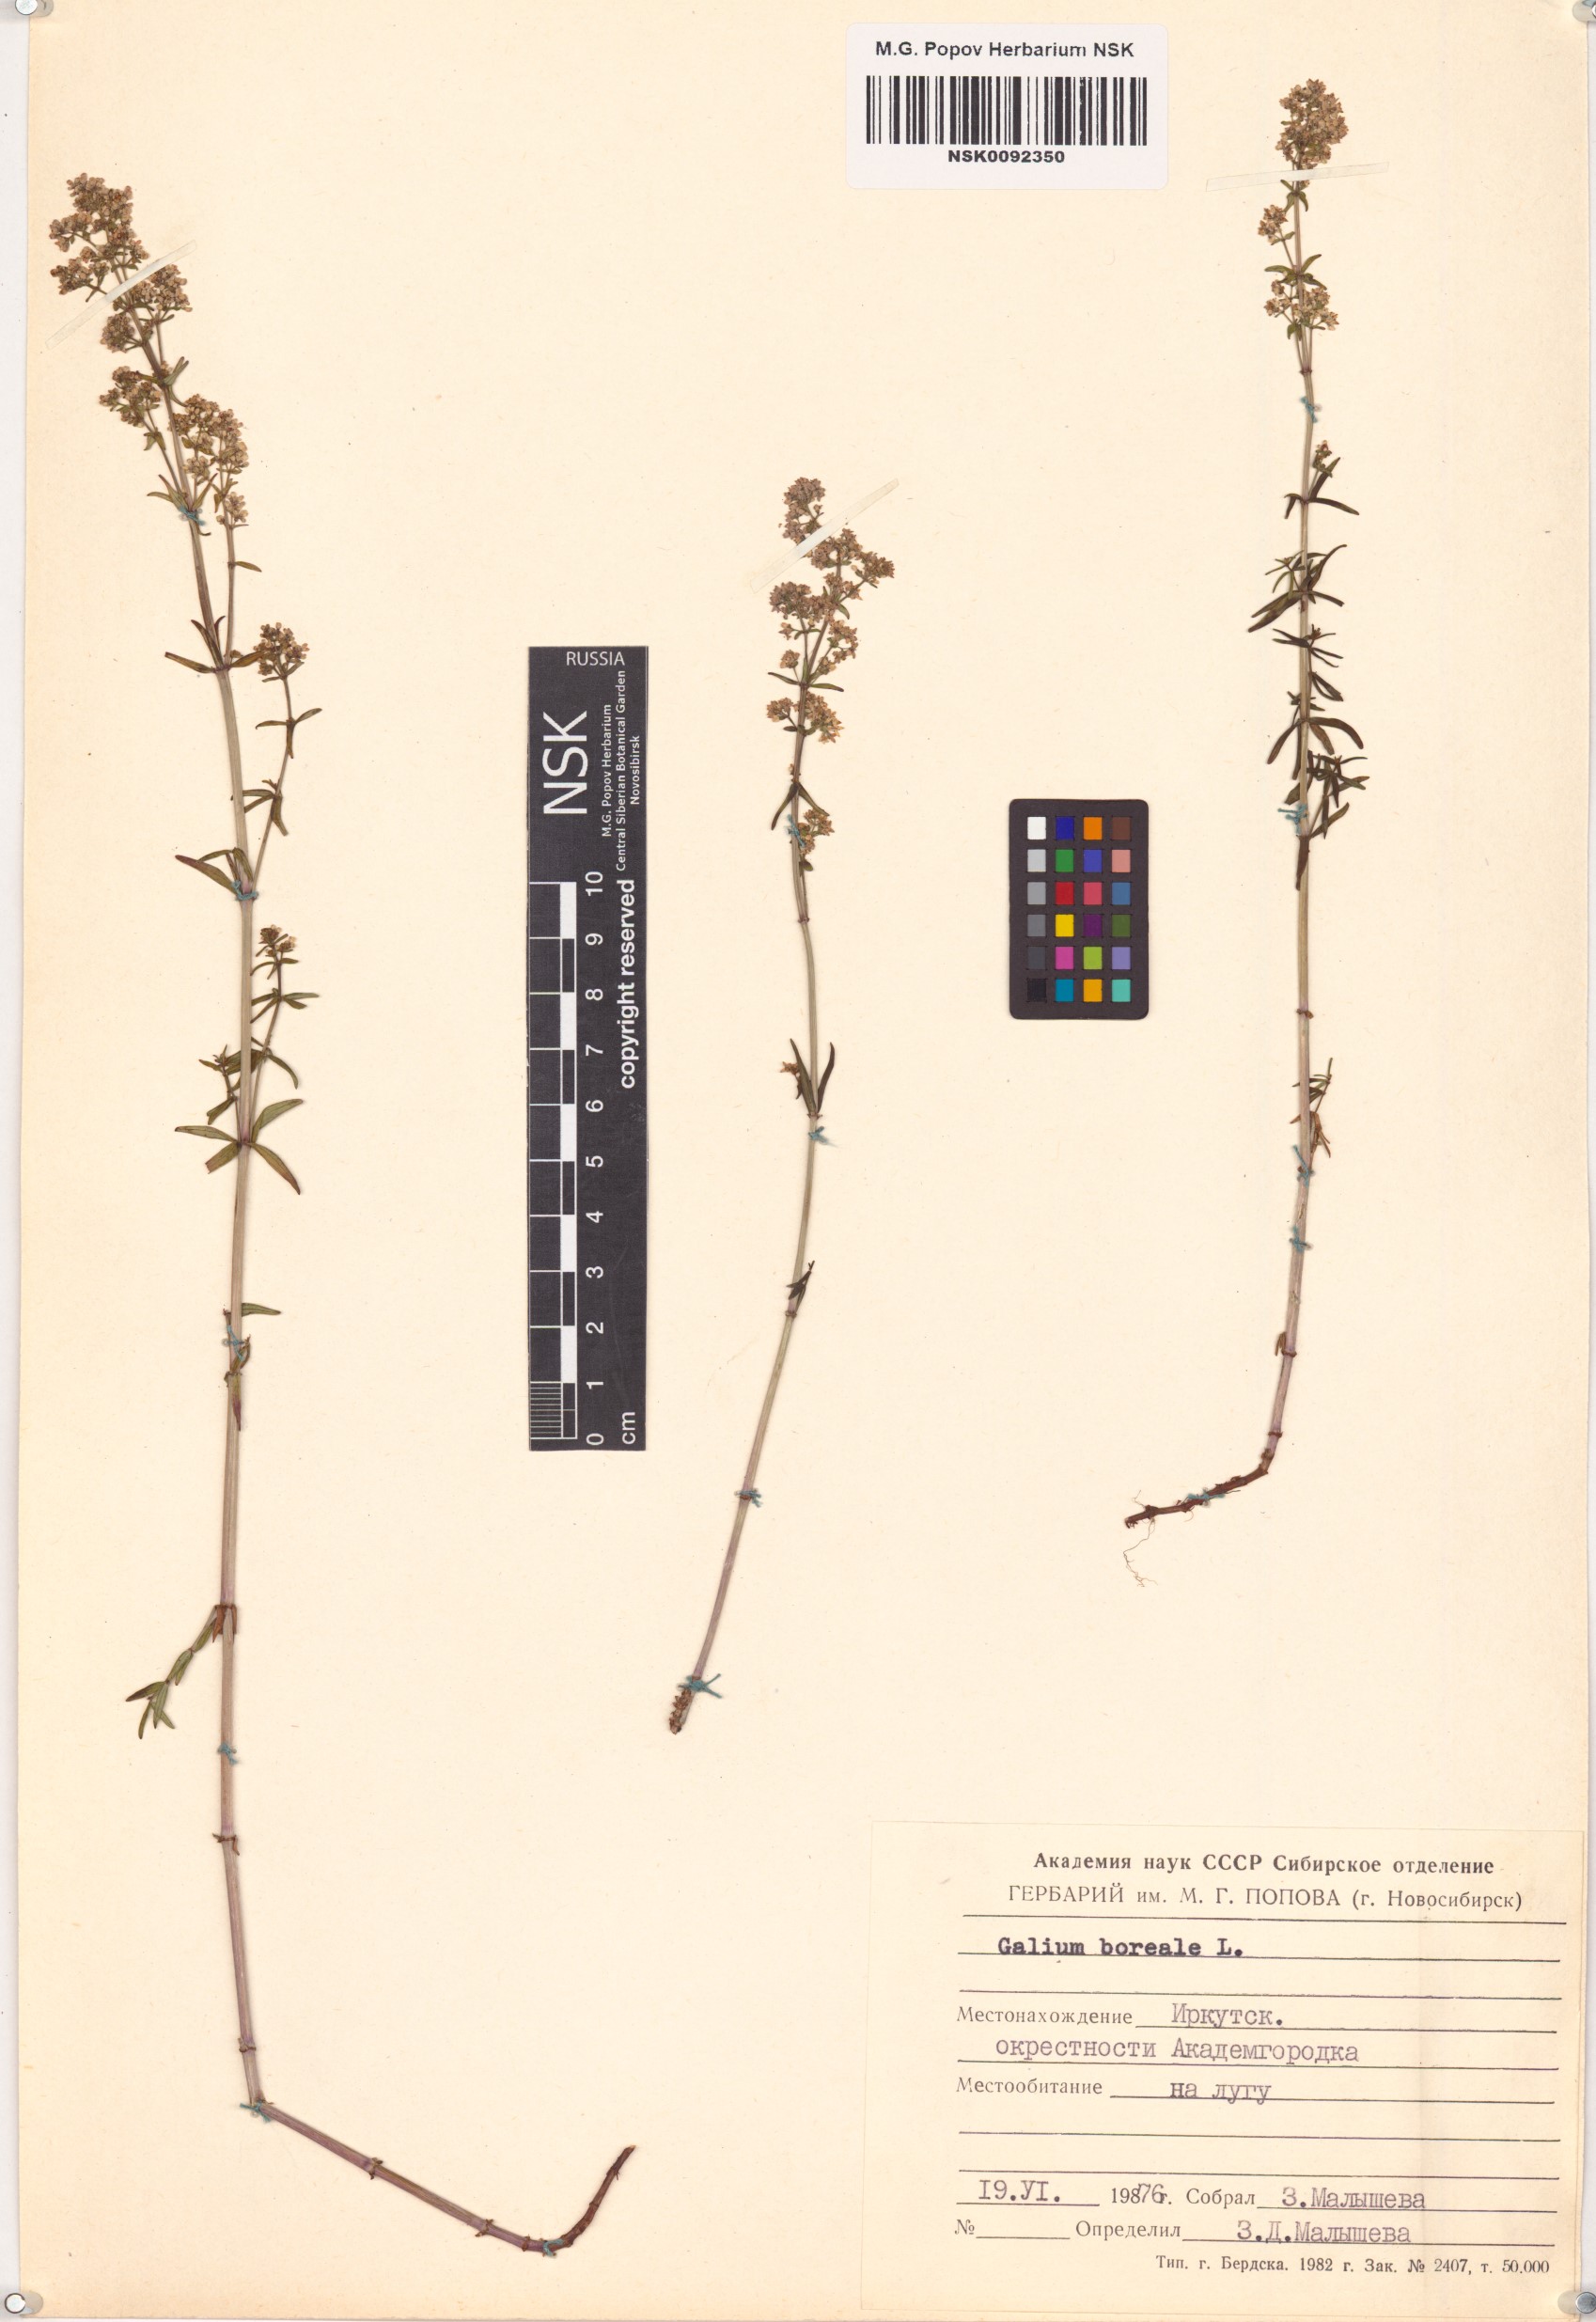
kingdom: Plantae
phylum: Tracheophyta
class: Magnoliopsida
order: Gentianales
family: Rubiaceae
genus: Galium
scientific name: Galium boreale
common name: Northern bedstraw
